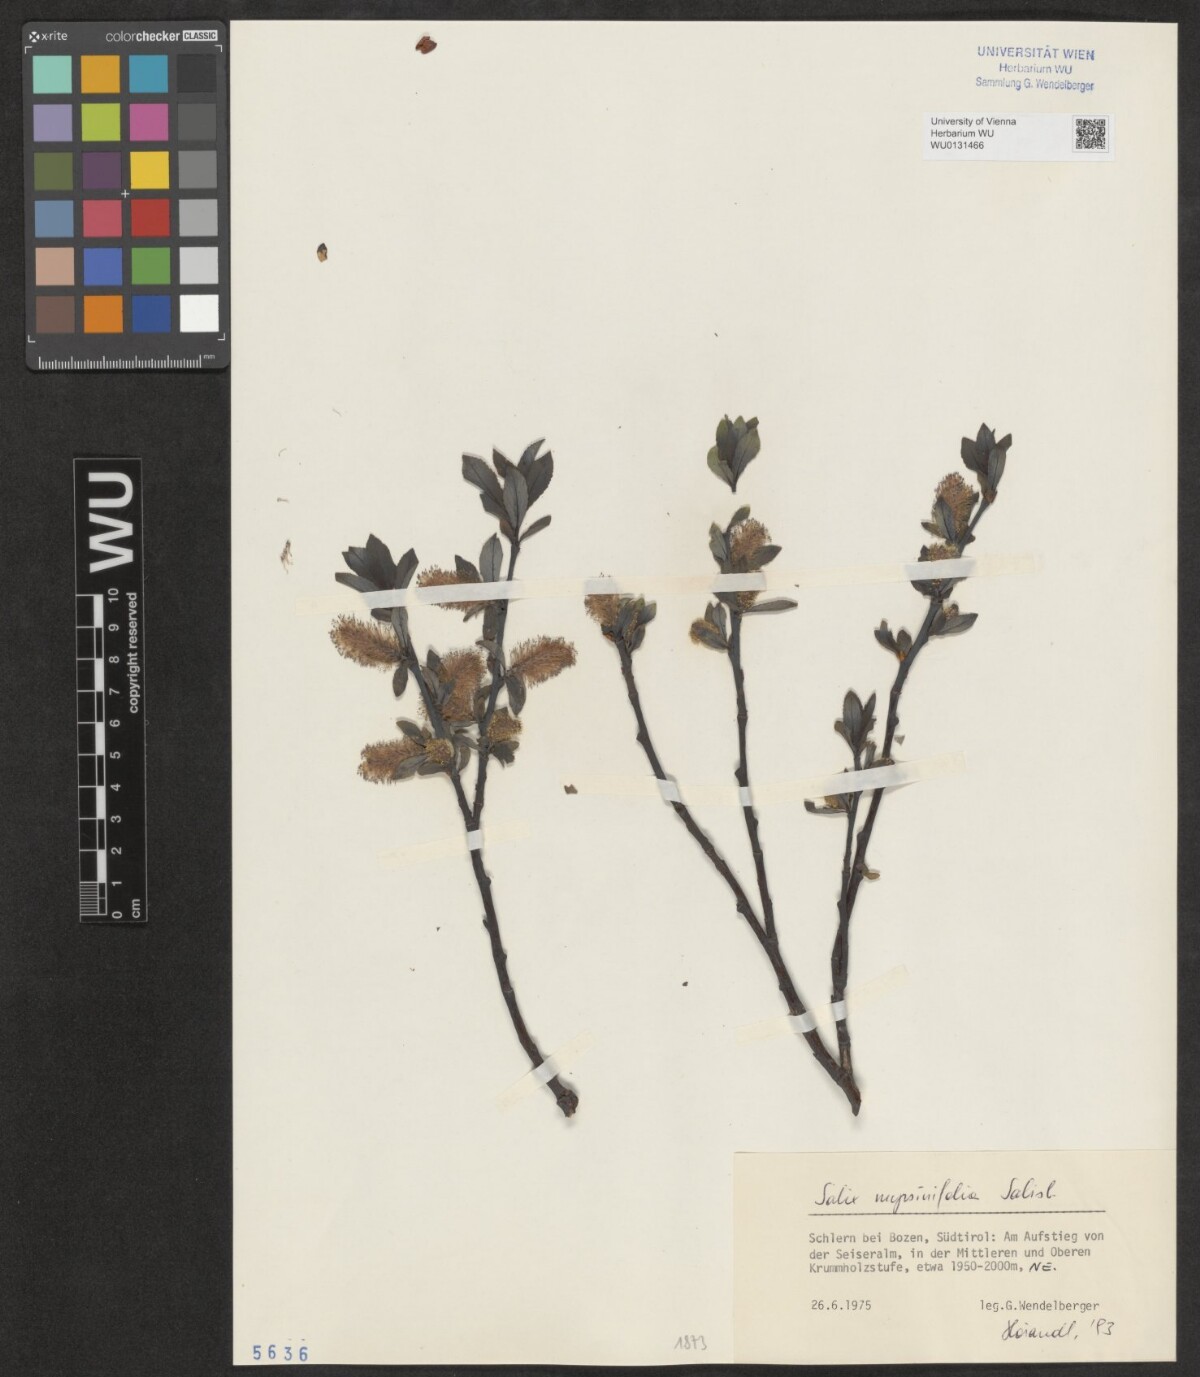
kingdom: Plantae
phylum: Tracheophyta
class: Magnoliopsida
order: Malpighiales
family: Salicaceae
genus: Salix
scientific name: Salix myrsinifolia
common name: Dark-leaved willow
